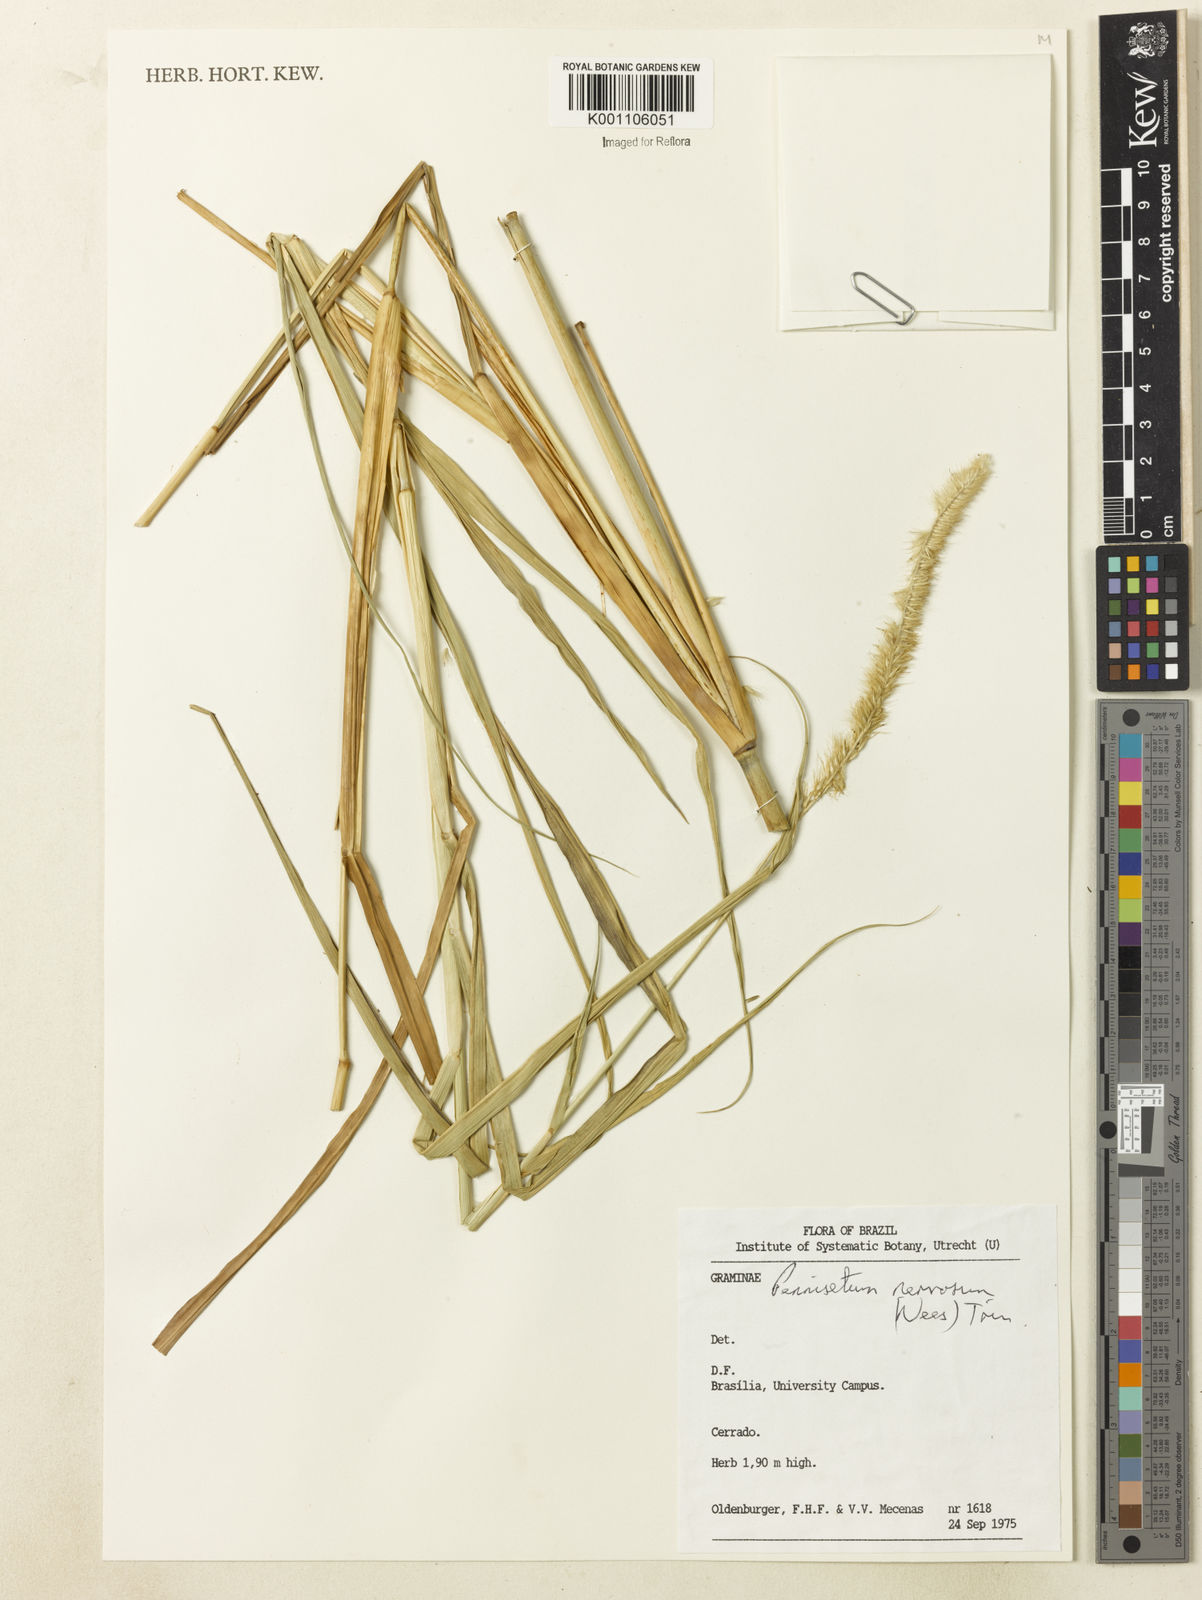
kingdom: Plantae
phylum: Tracheophyta
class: Liliopsida
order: Poales
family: Poaceae
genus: Cenchrus
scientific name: Cenchrus nervosus
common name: Bentspike fountaingrass
